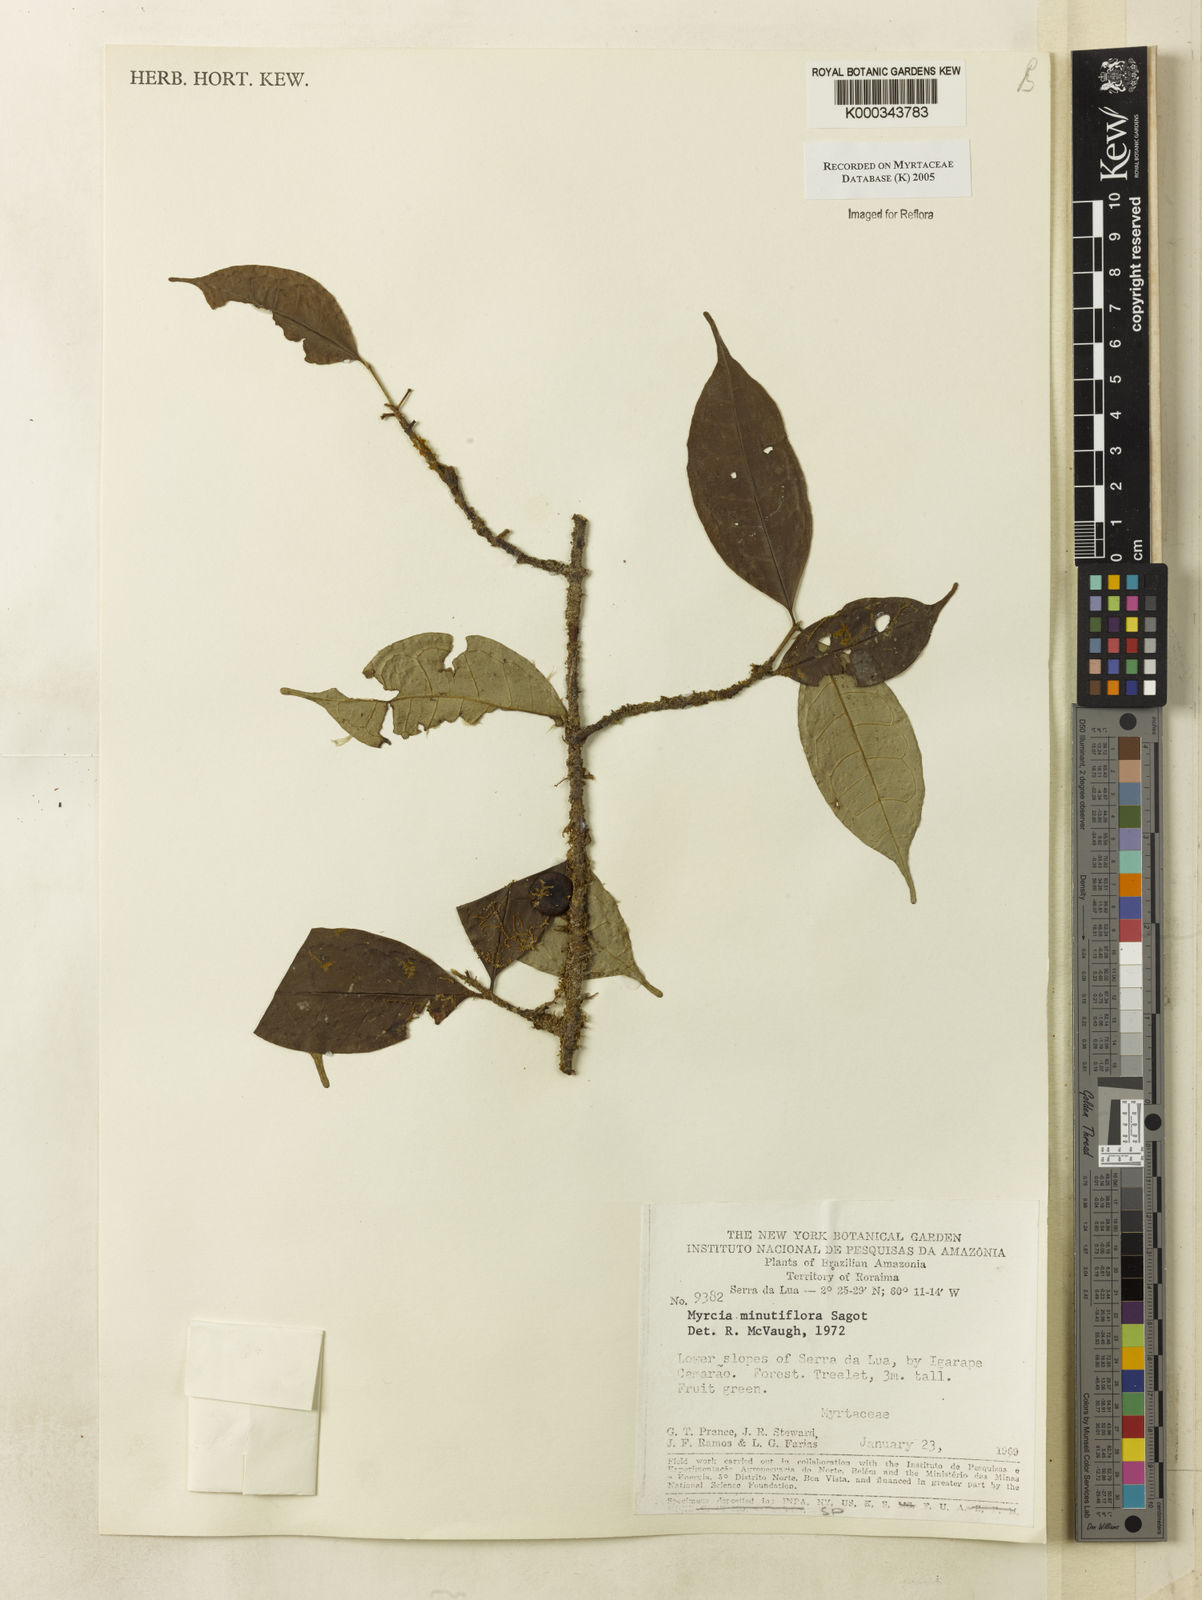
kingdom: Plantae
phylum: Tracheophyta
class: Magnoliopsida
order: Myrtales
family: Myrtaceae
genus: Myrcia
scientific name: Myrcia minutiflora
